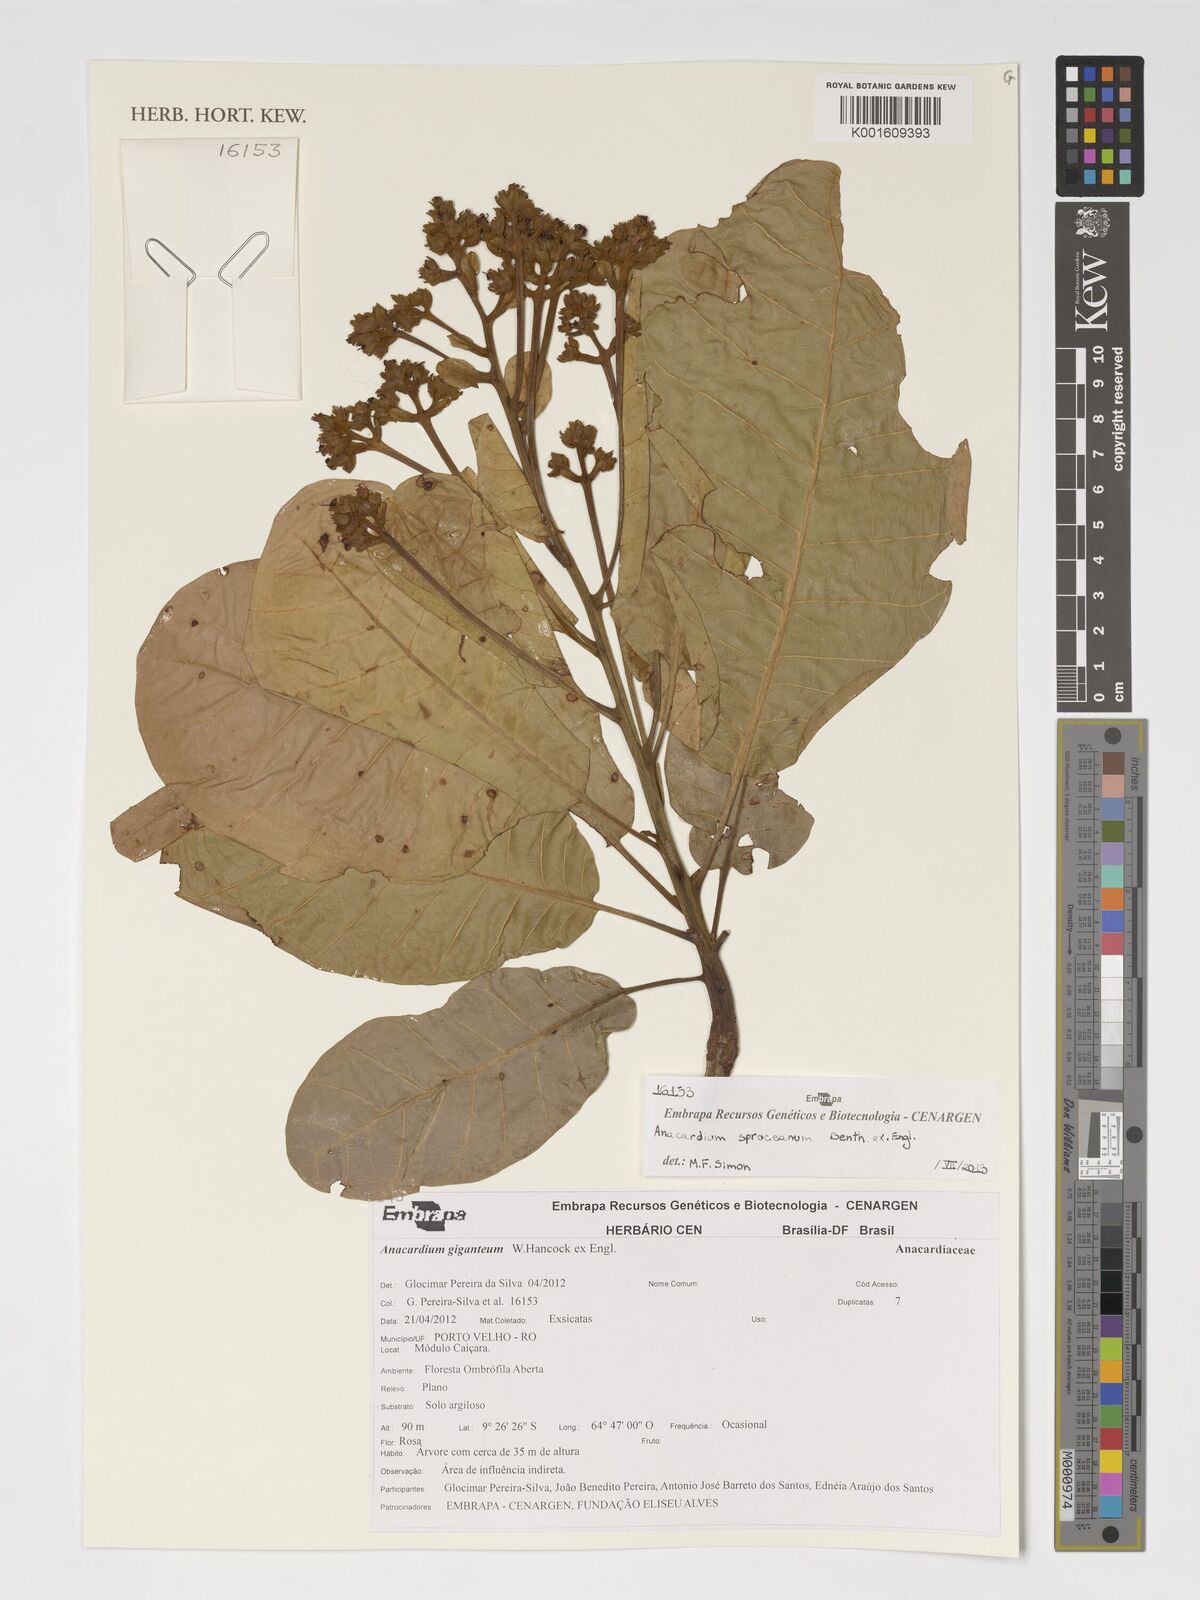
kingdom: Plantae
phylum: Tracheophyta
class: Magnoliopsida
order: Sapindales
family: Anacardiaceae
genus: Anacardium
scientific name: Anacardium spruceanum
